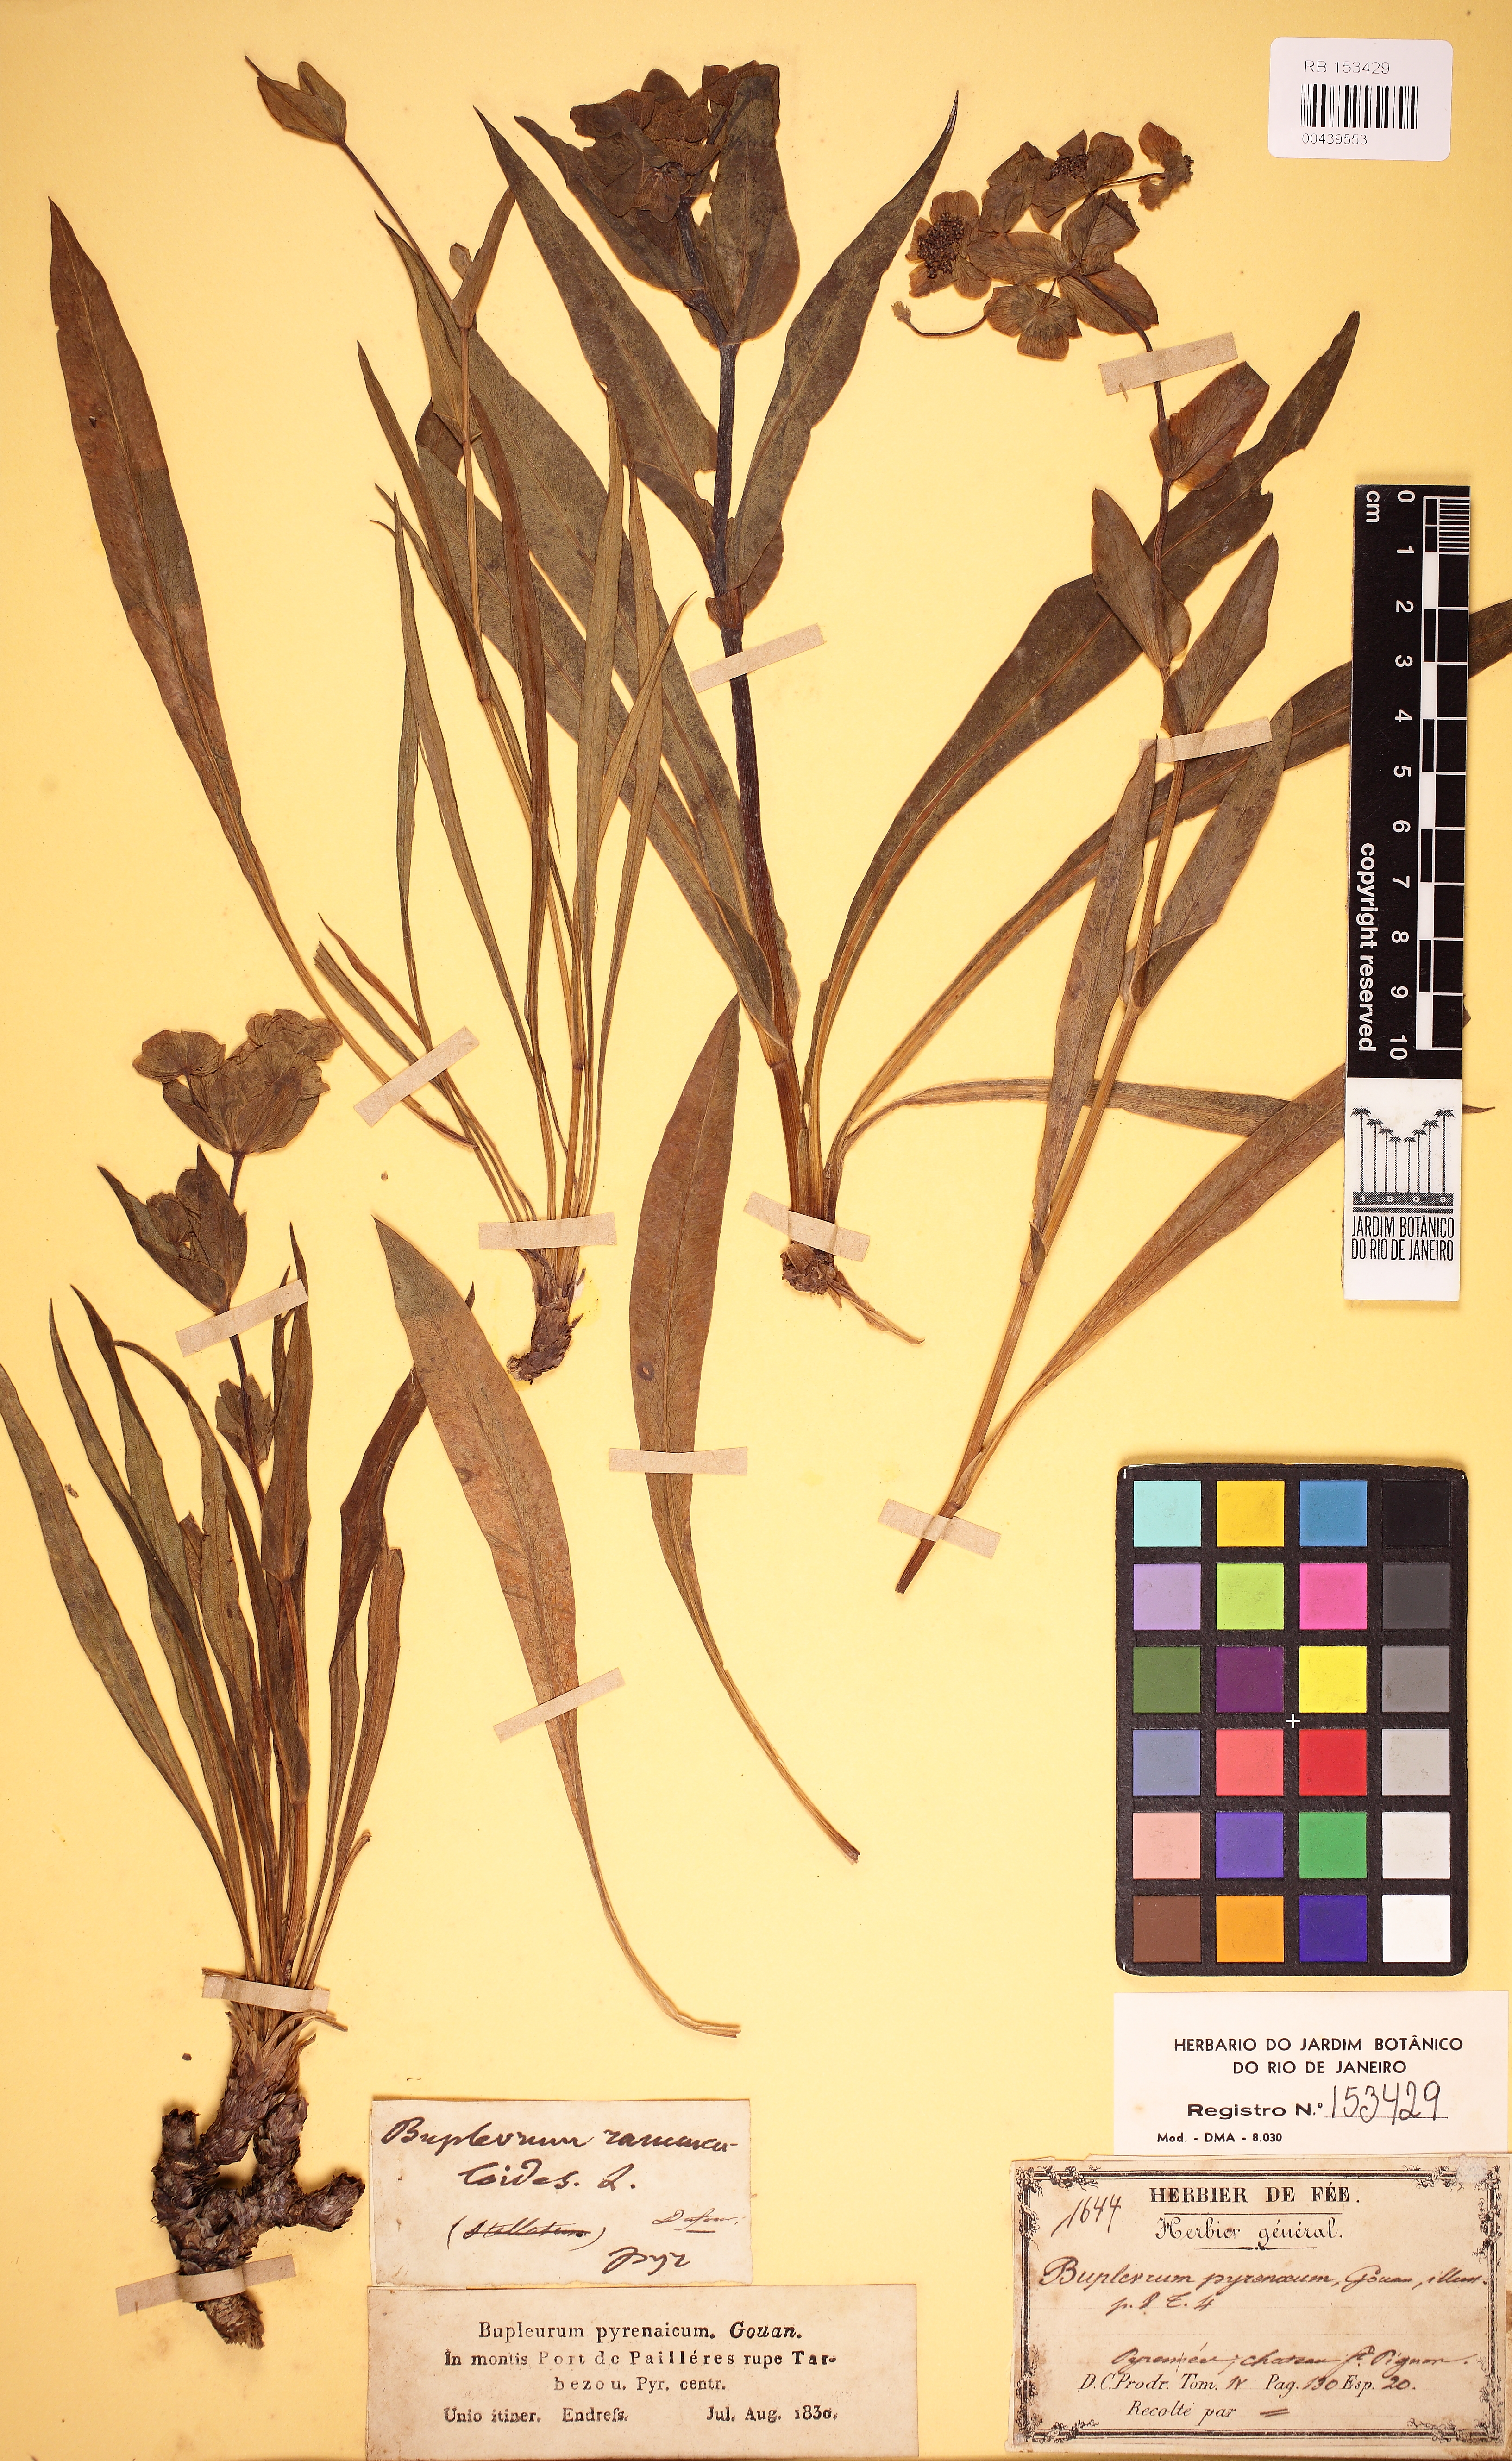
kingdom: Plantae
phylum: Tracheophyta
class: Magnoliopsida
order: Apiales
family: Apiaceae
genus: Bupleurum
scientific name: Bupleurum angulosum
